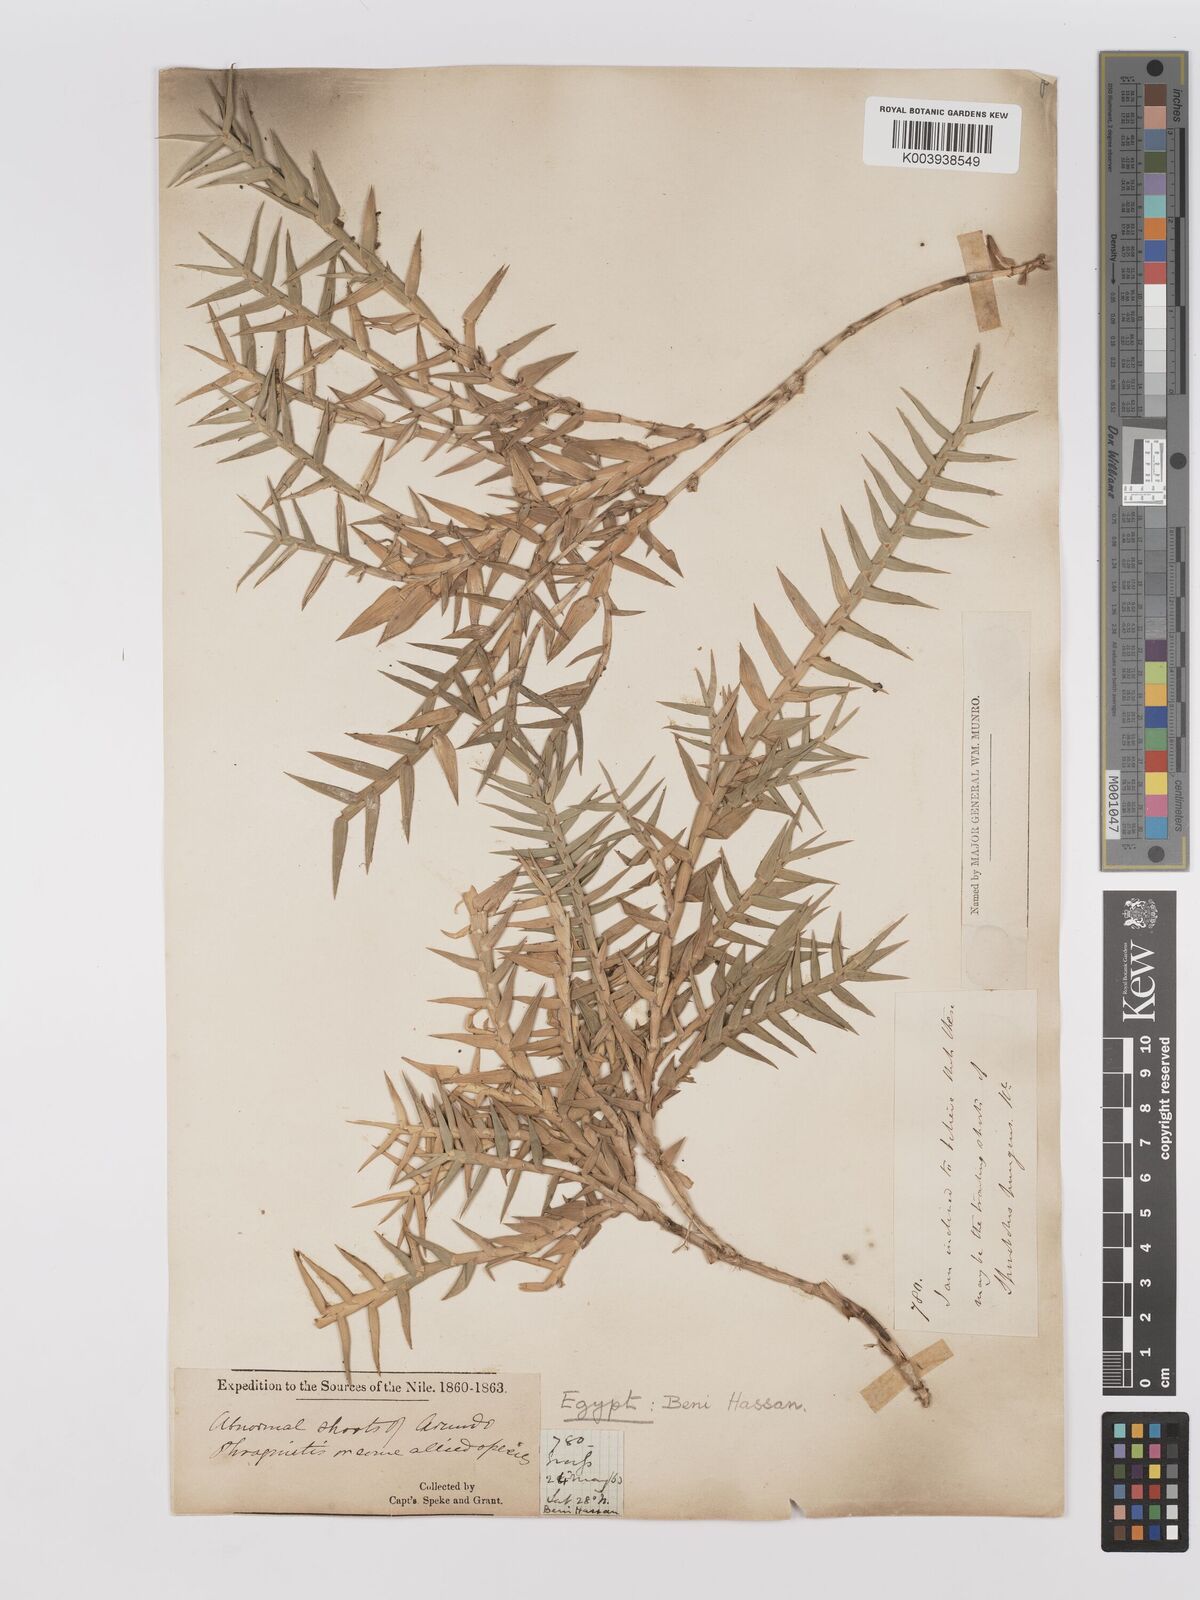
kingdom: Plantae
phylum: Tracheophyta
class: Liliopsida
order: Poales
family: Poaceae
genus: Phragmites
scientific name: Phragmites australis
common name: Common reed
